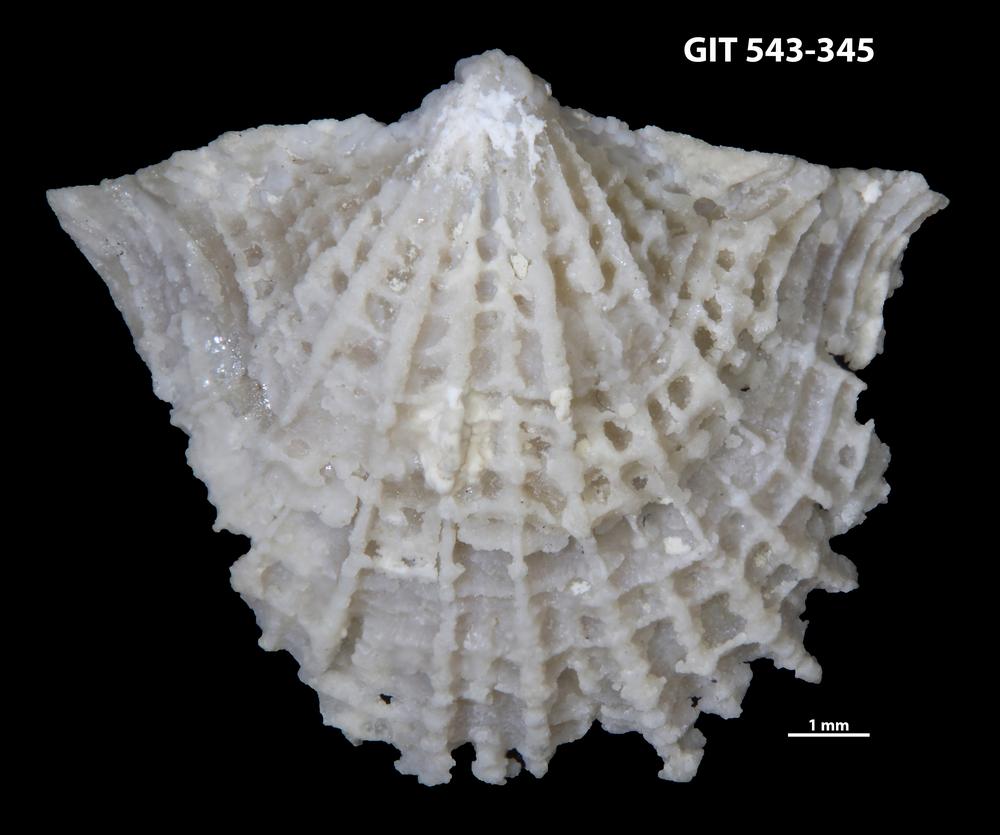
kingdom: Animalia
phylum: Brachiopoda
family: Kullervoidae
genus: Kullervo
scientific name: Kullervo
